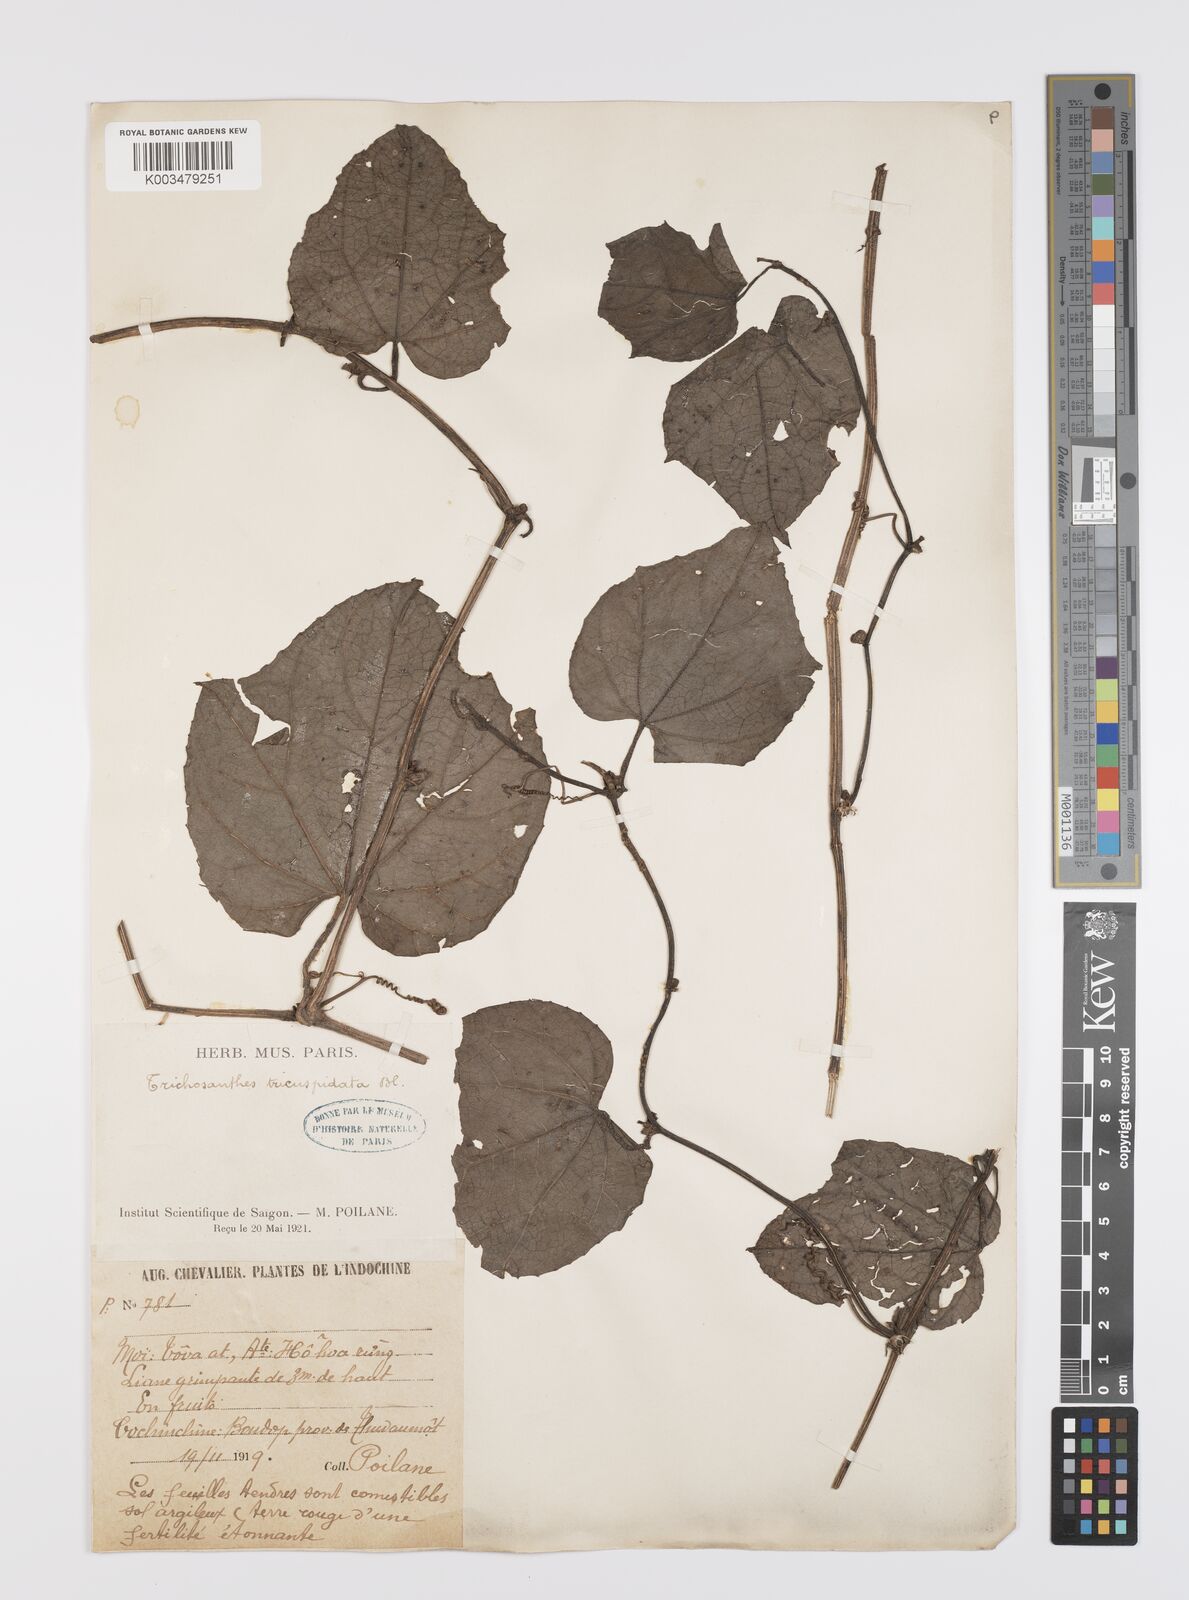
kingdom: Plantae
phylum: Tracheophyta
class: Magnoliopsida
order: Cucurbitales
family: Cucurbitaceae
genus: Trichosanthes
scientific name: Trichosanthes tricuspidata
